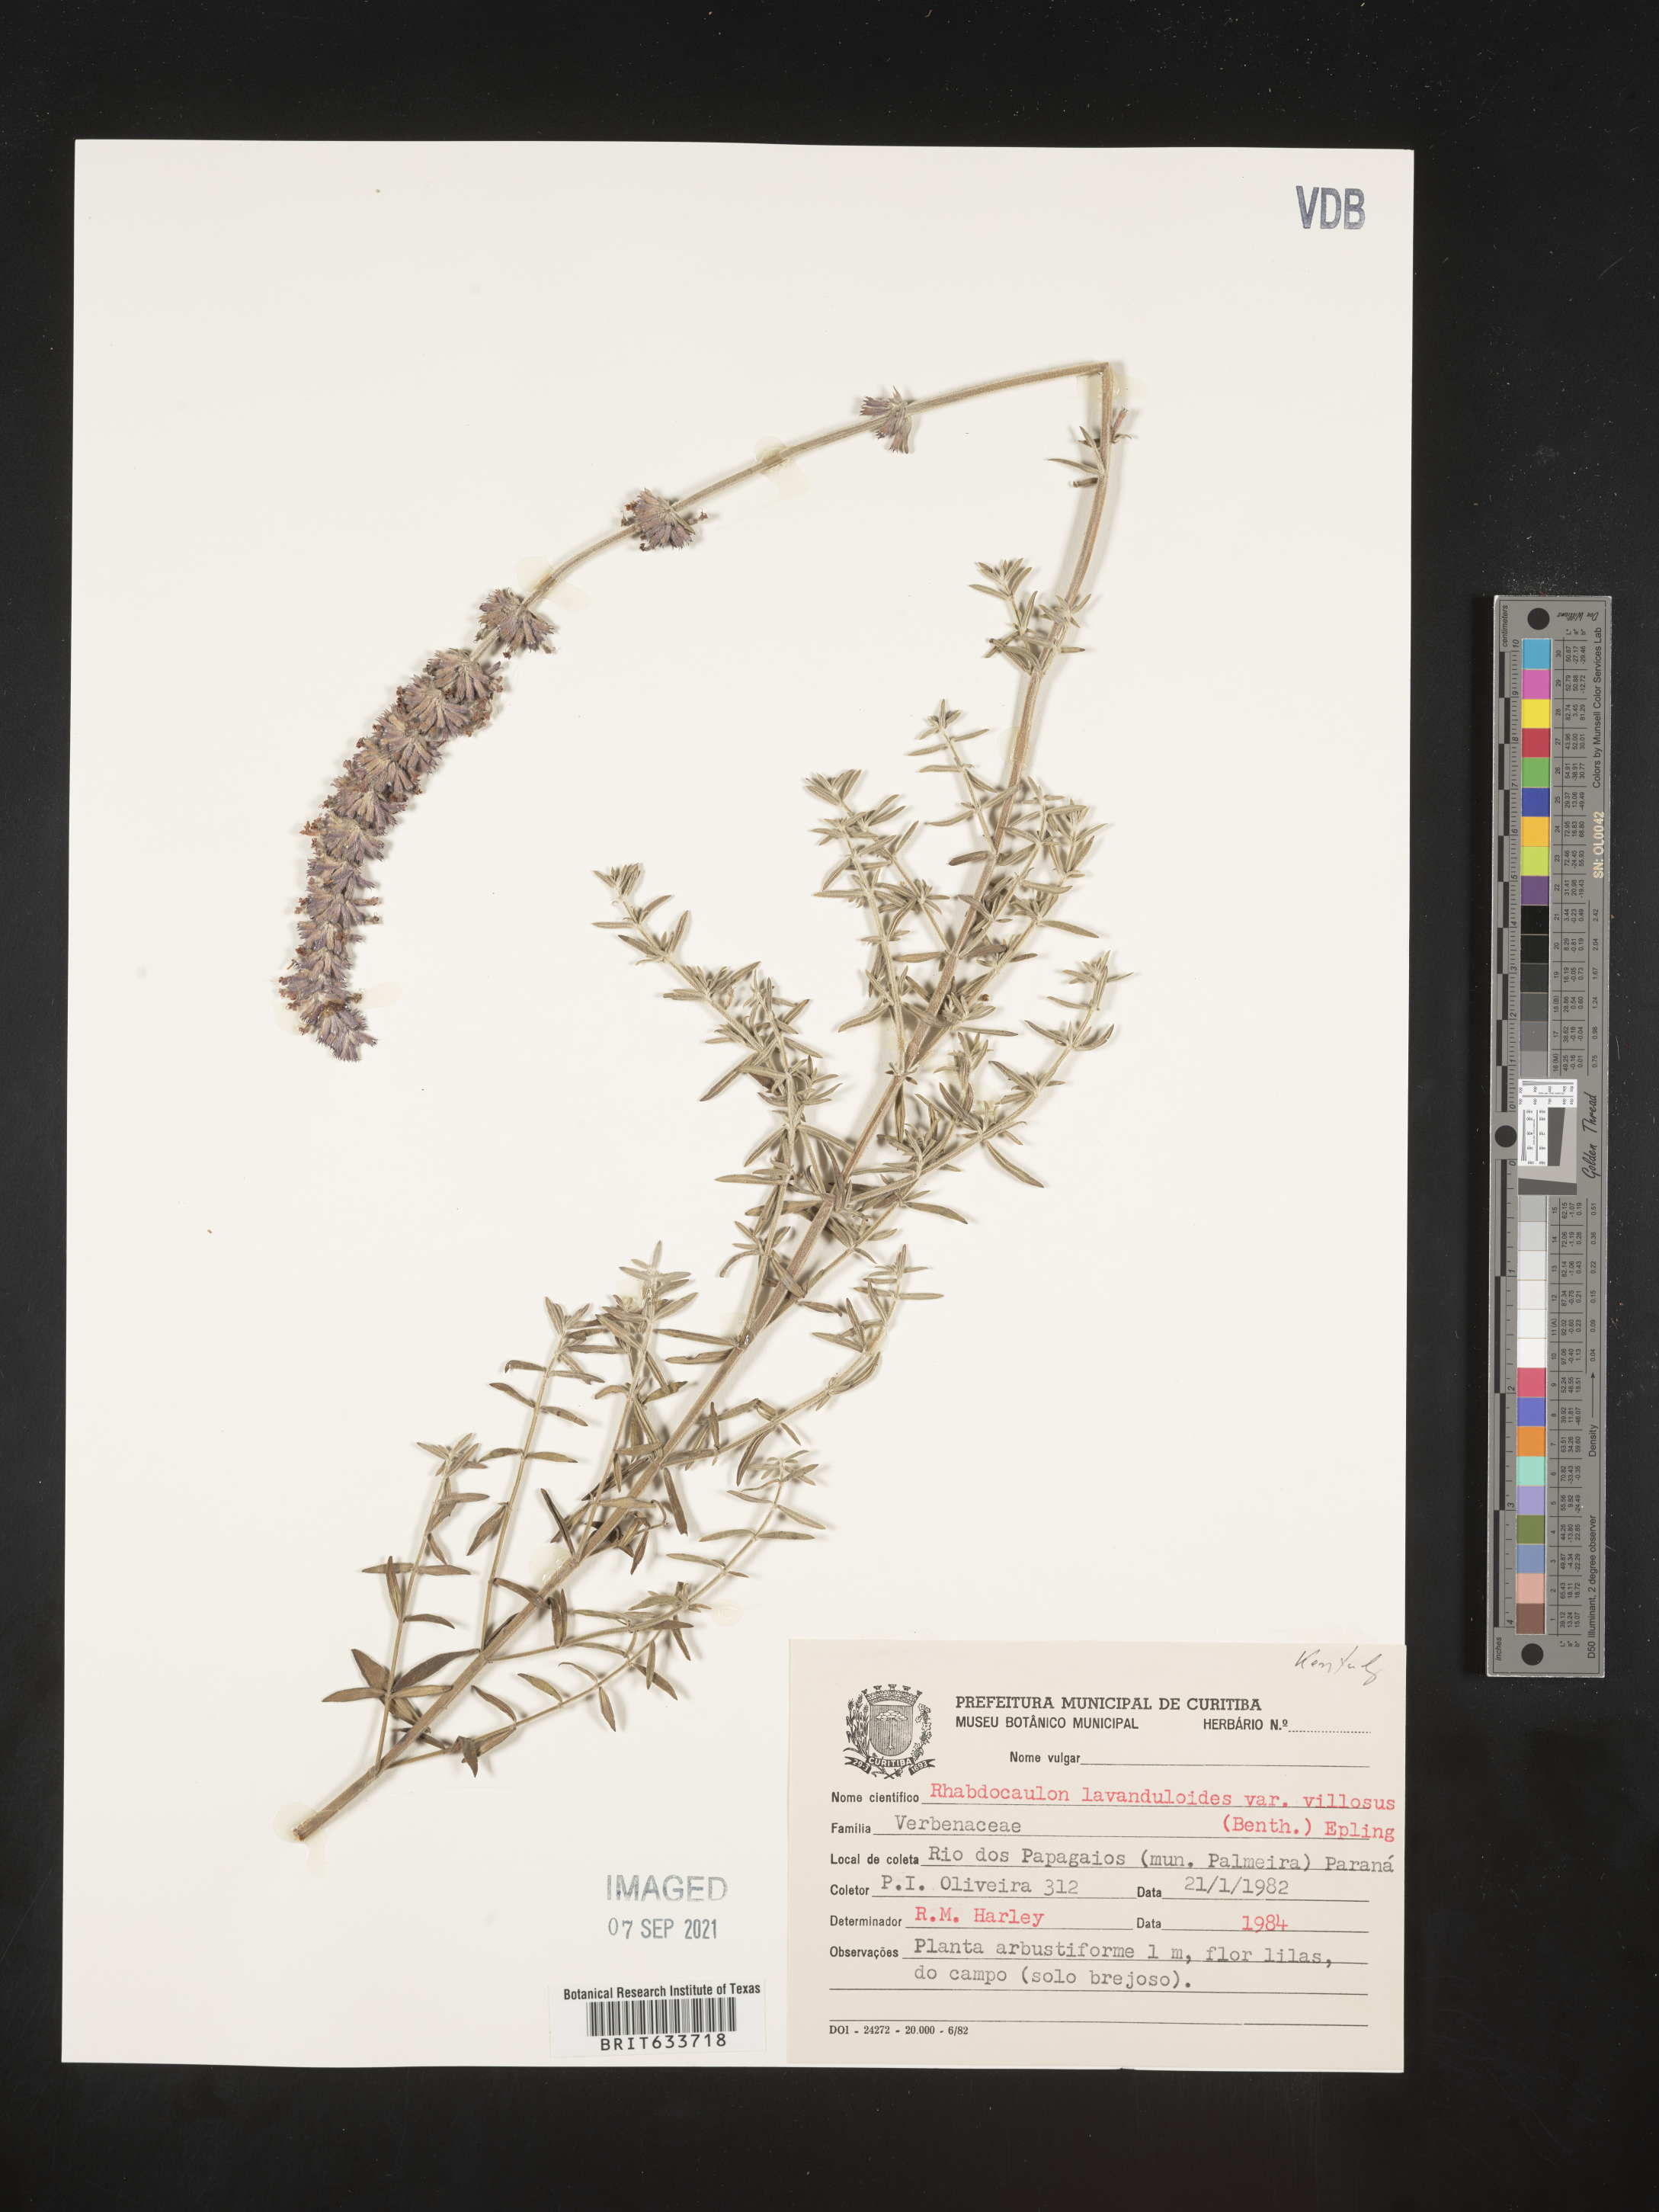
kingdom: Plantae
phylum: Tracheophyta
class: Magnoliopsida
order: Lamiales
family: Lamiaceae
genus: Rhabdocaulon
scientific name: Rhabdocaulon lavanduloides
